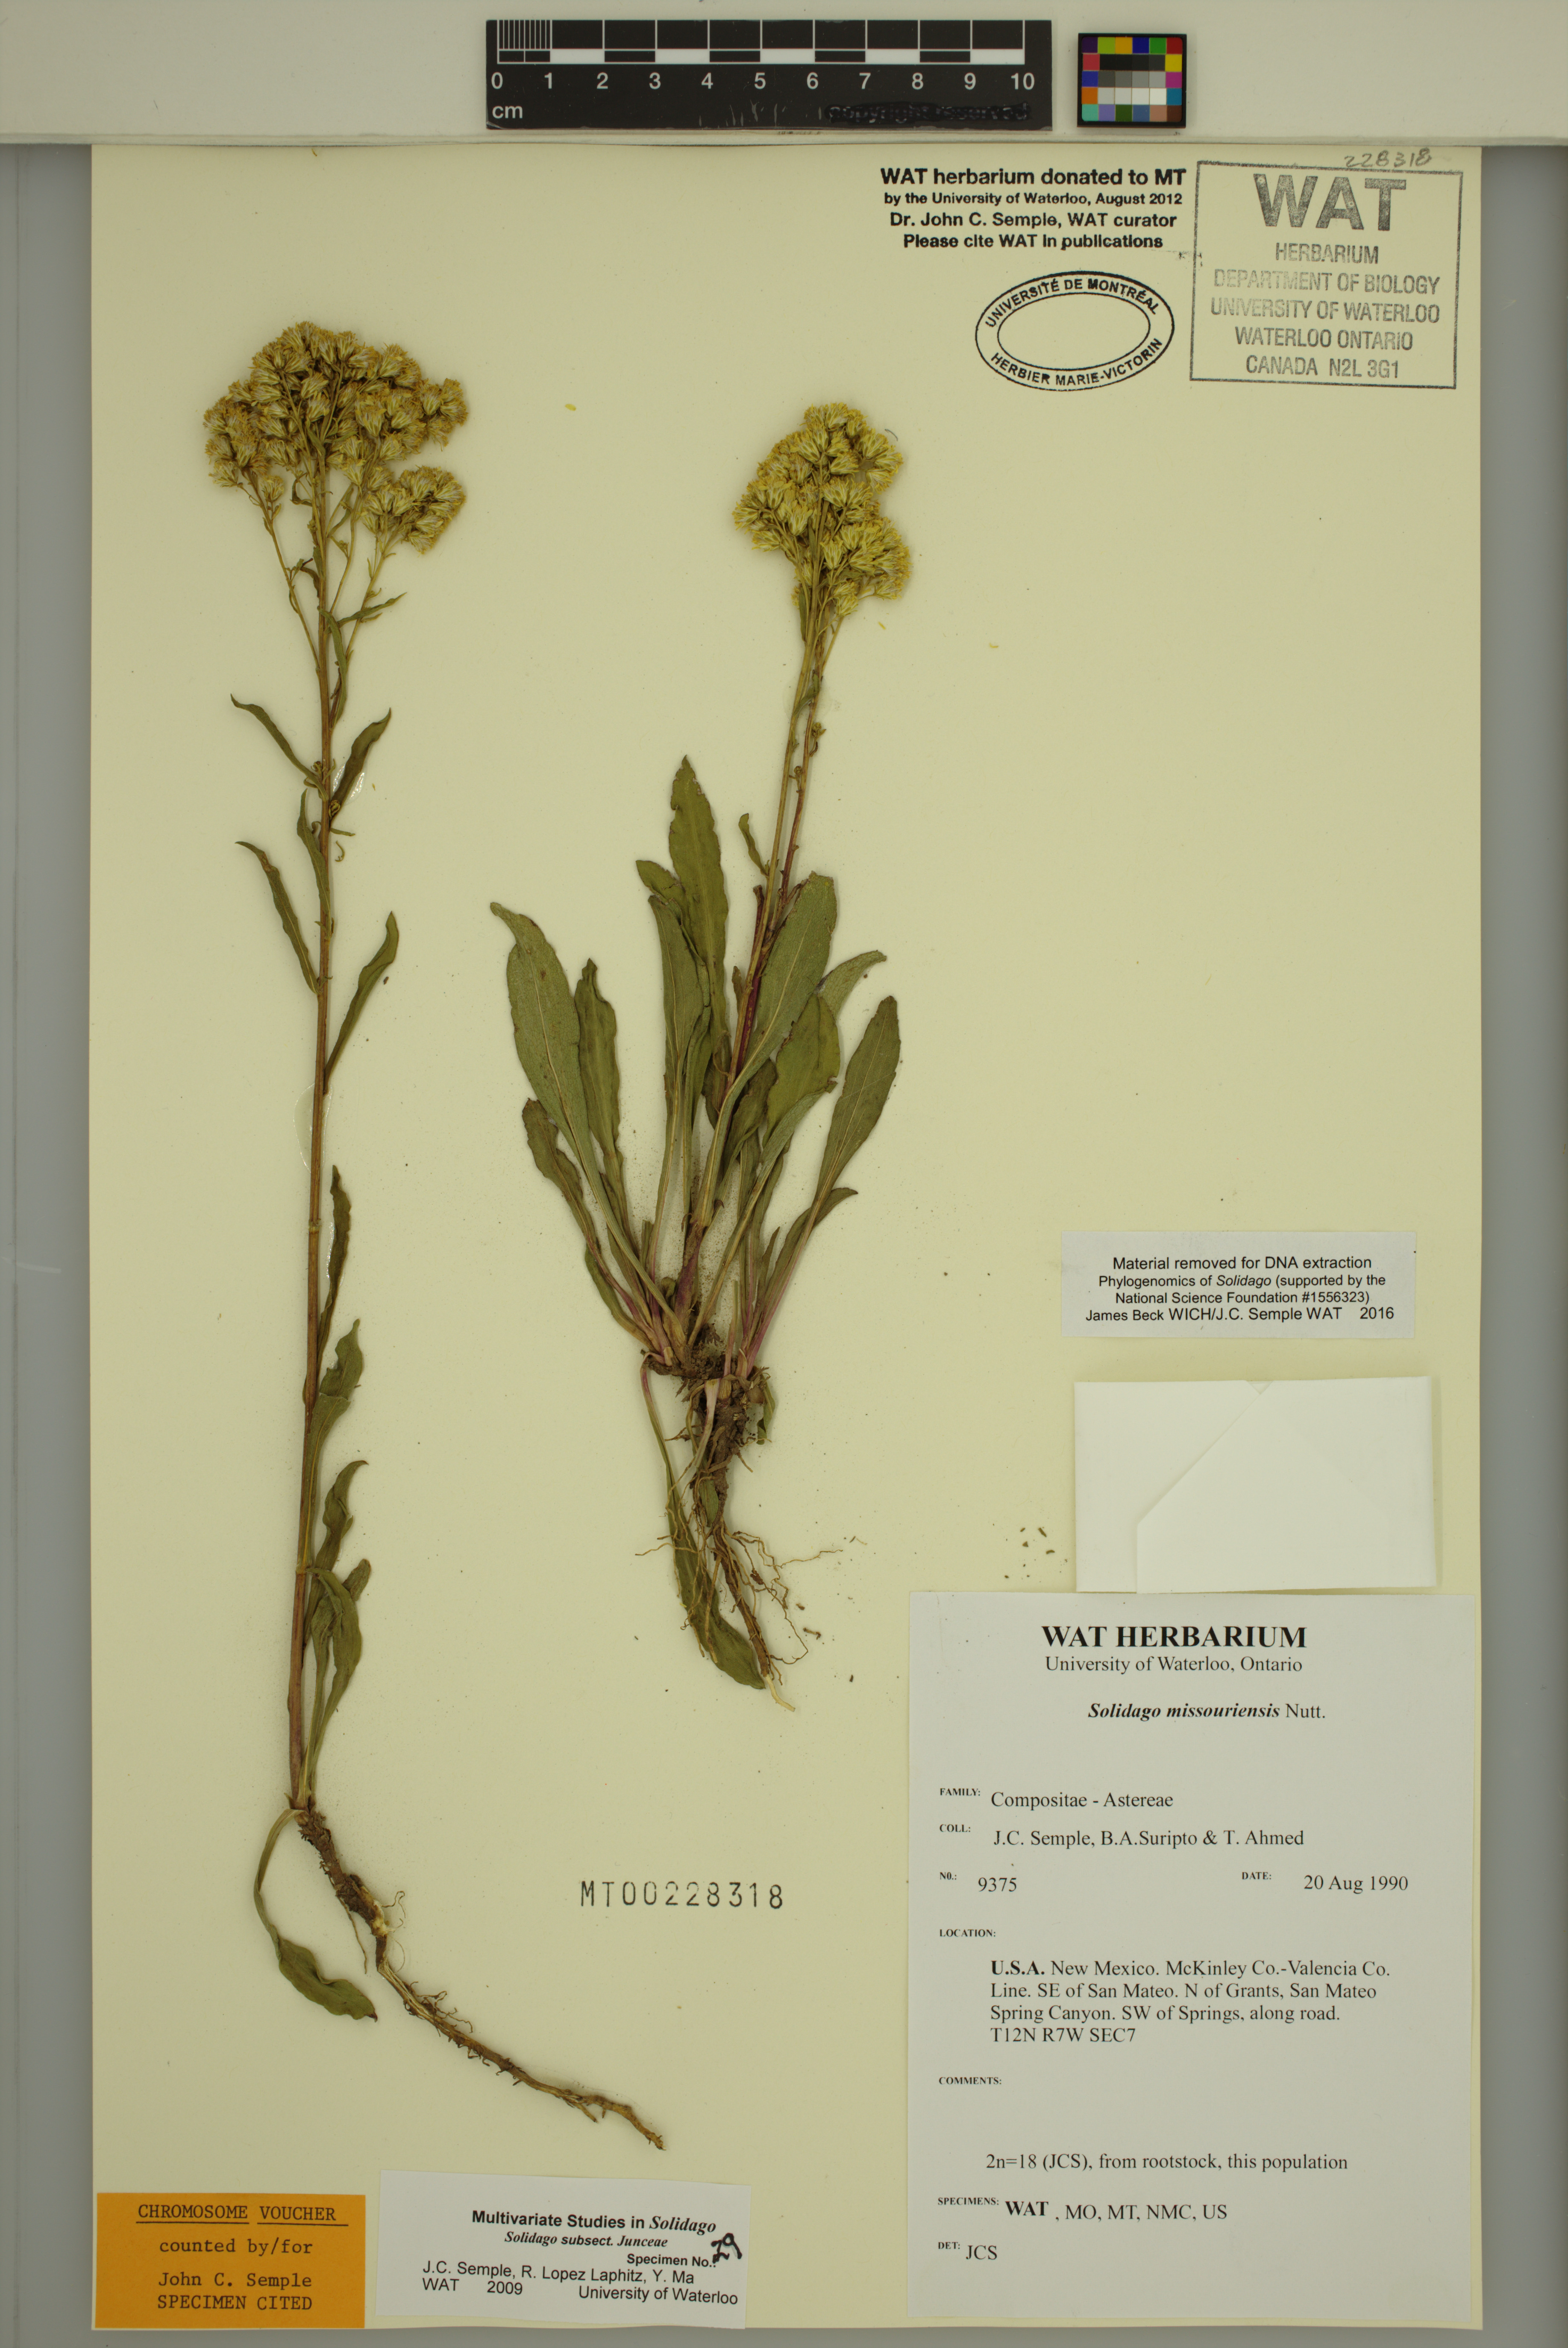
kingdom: Plantae
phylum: Tracheophyta
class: Magnoliopsida
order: Asterales
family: Asteraceae
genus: Solidago
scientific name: Solidago missouriensis
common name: Prairie goldenrod
